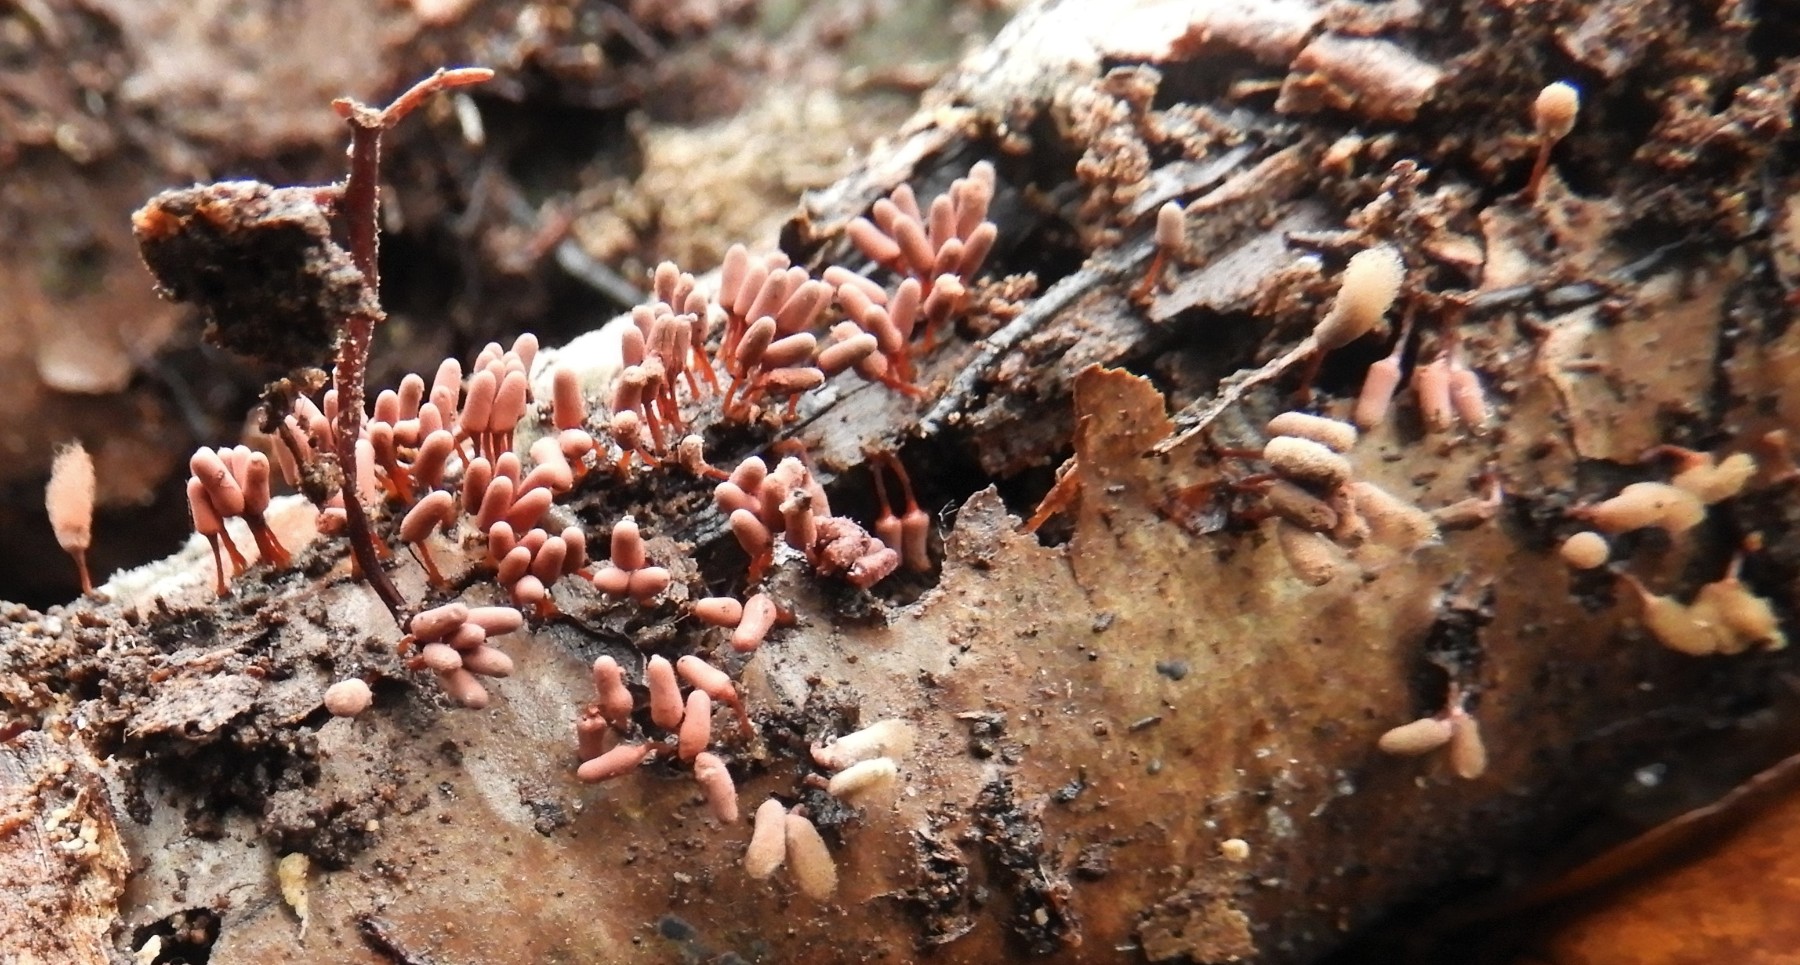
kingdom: Protozoa
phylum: Amoebozoa
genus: Arcyria
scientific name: Arcyria
